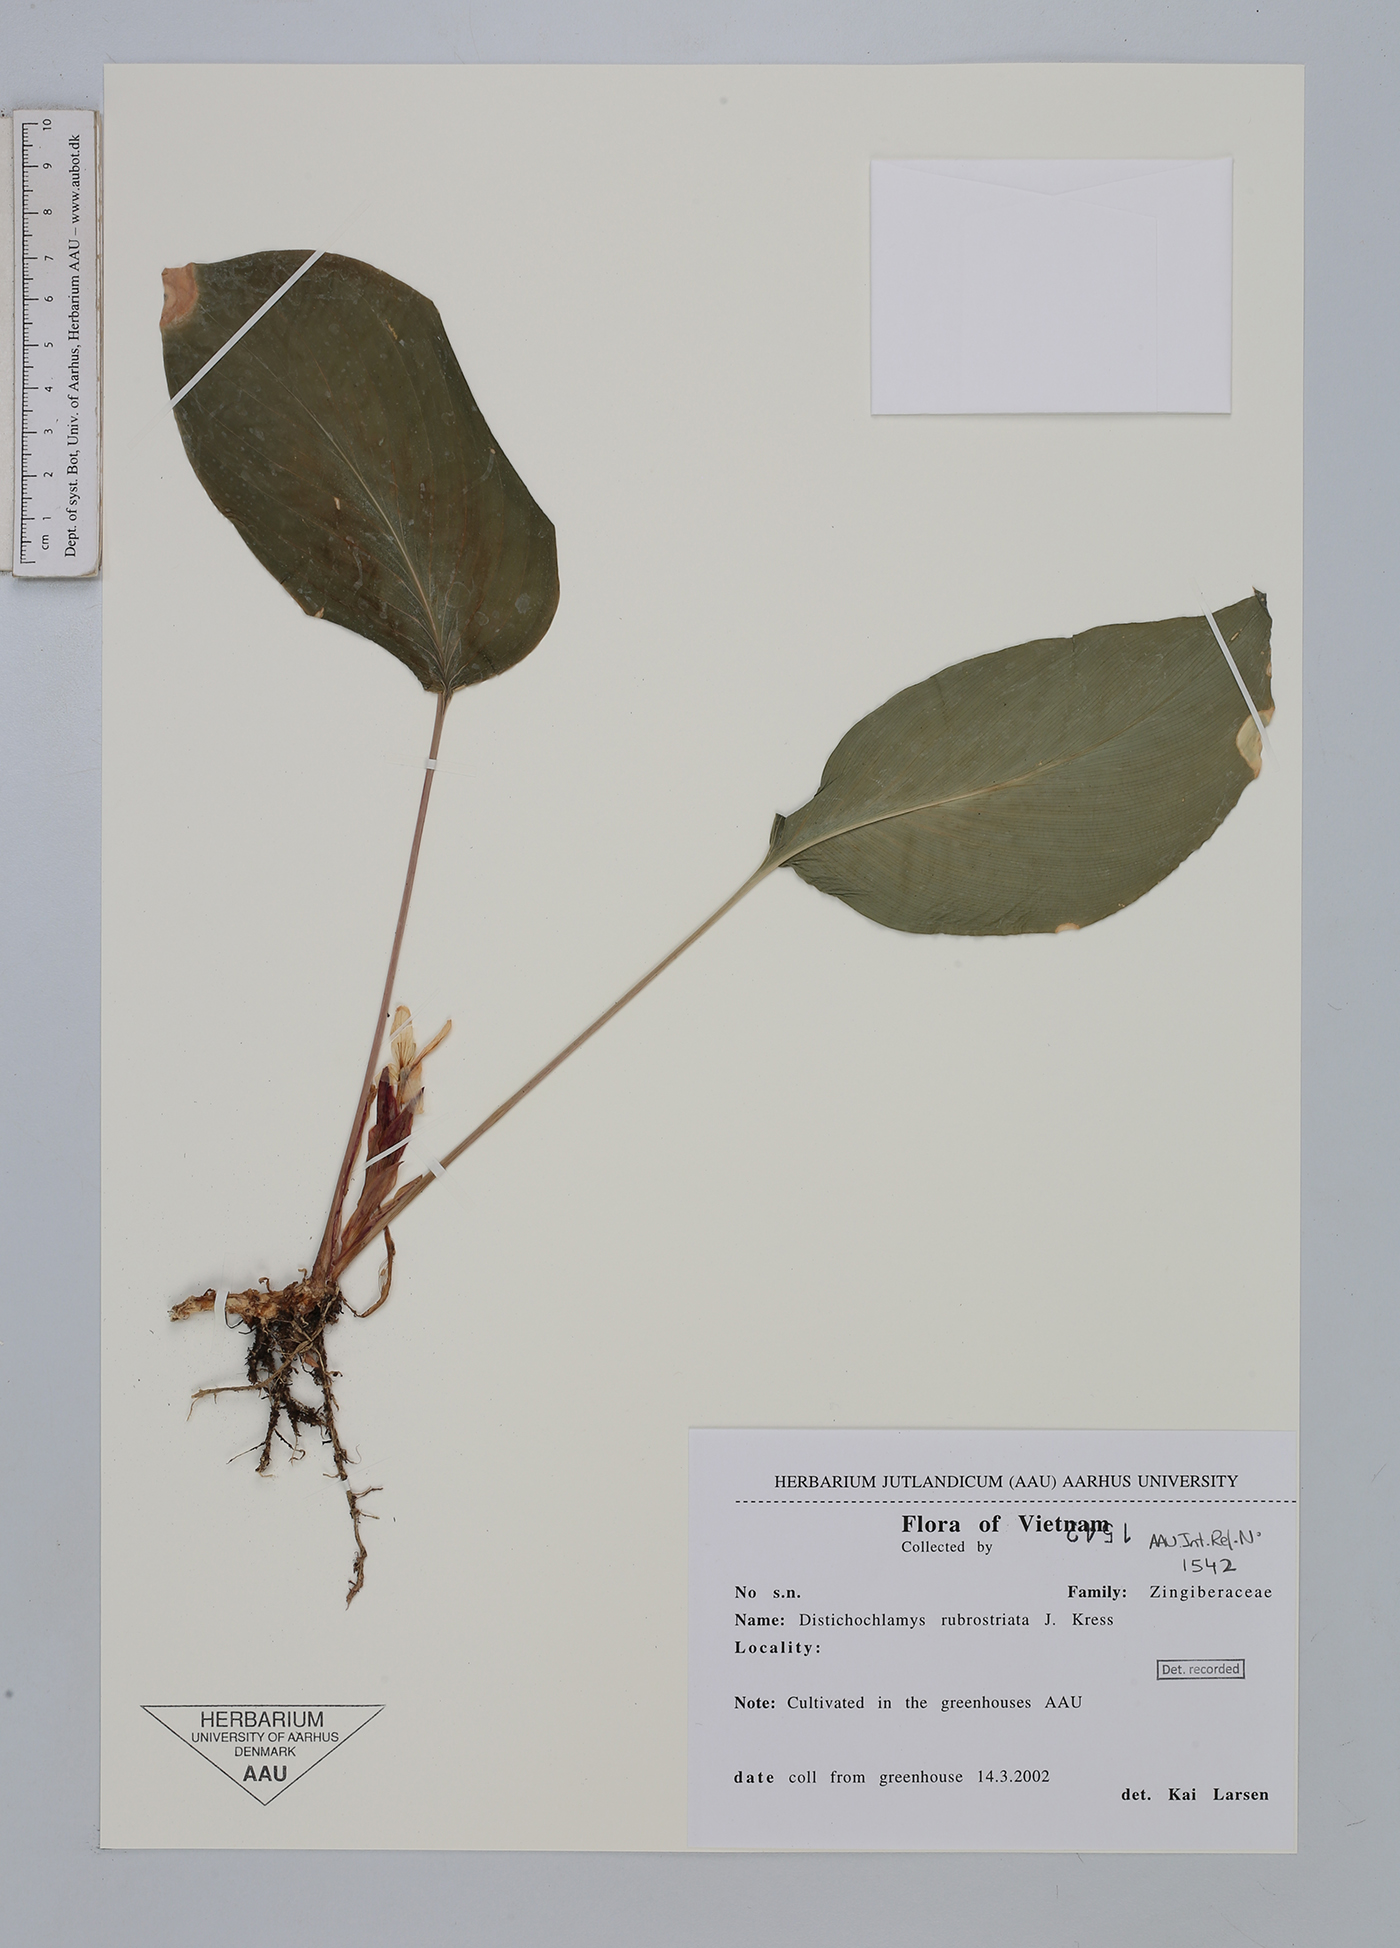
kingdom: Plantae
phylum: Tracheophyta
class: Liliopsida
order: Zingiberales
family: Zingiberaceae
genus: Distichochlamys
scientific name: Distichochlamys rubrostriata
